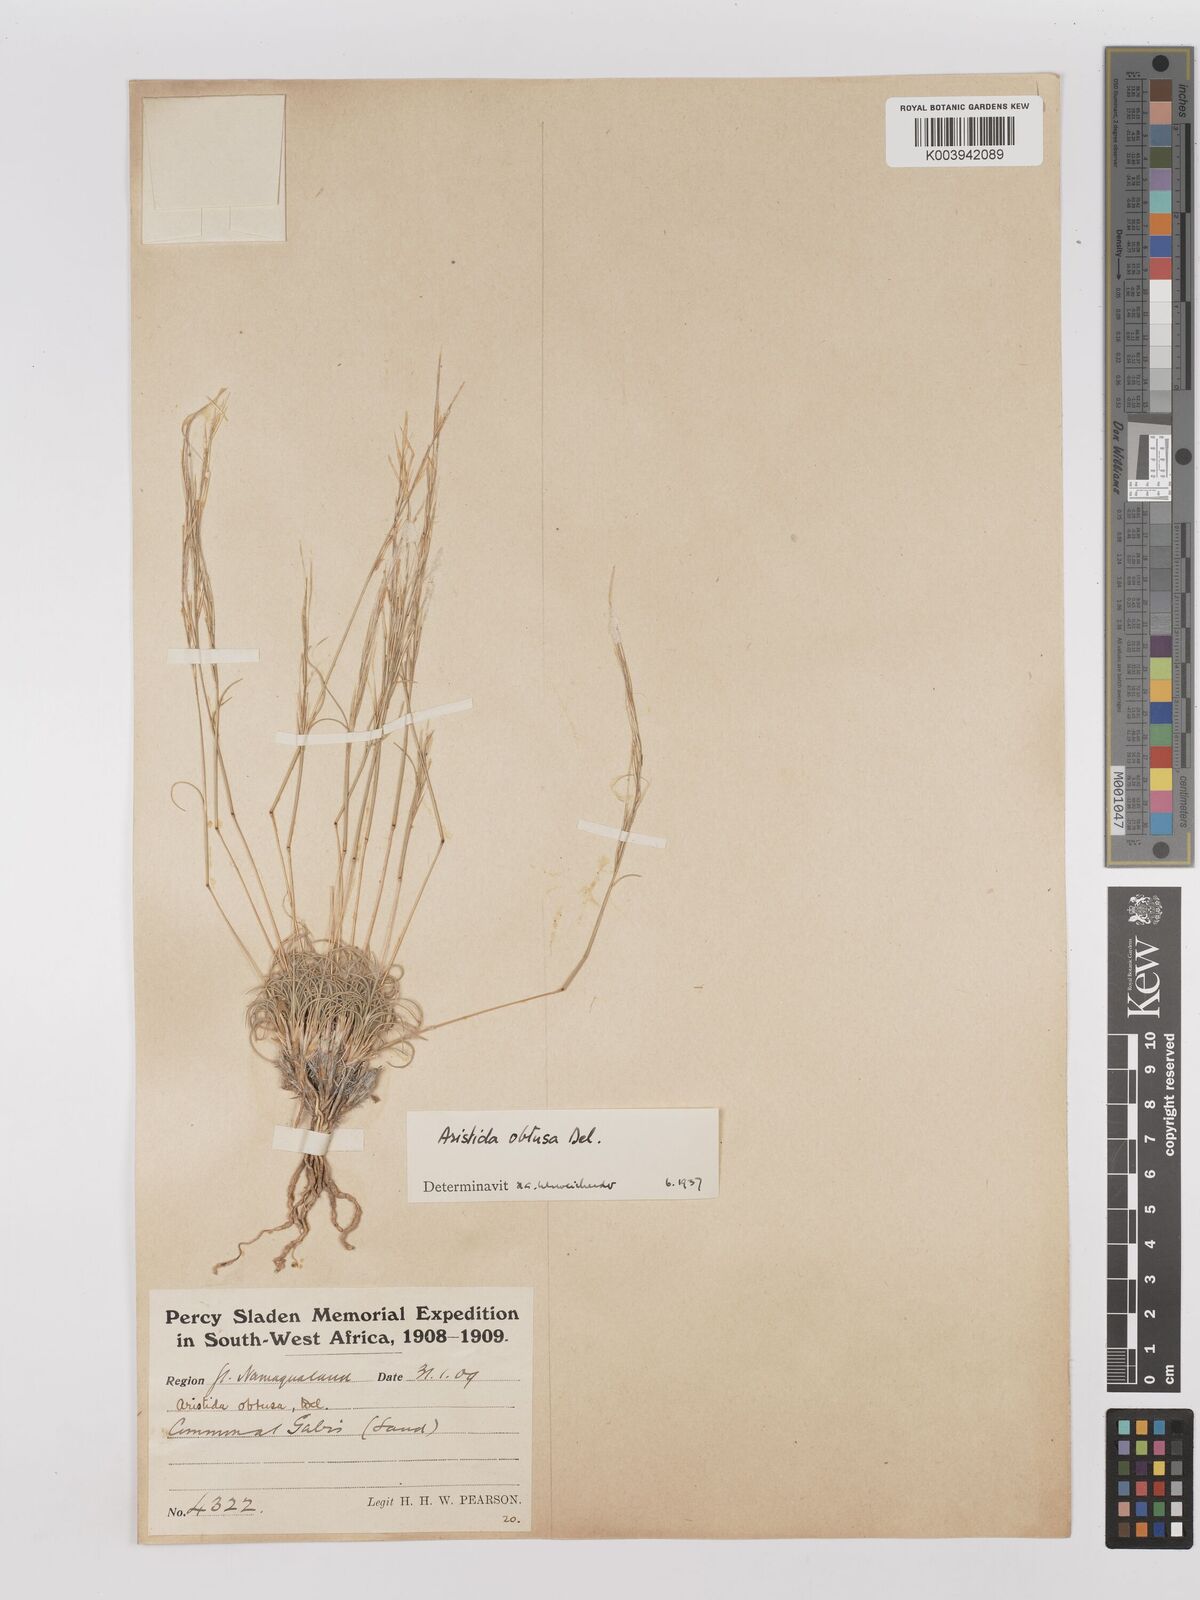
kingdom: Plantae
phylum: Tracheophyta
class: Liliopsida
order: Poales
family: Poaceae
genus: Stipagrostis
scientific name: Stipagrostis obtusa
